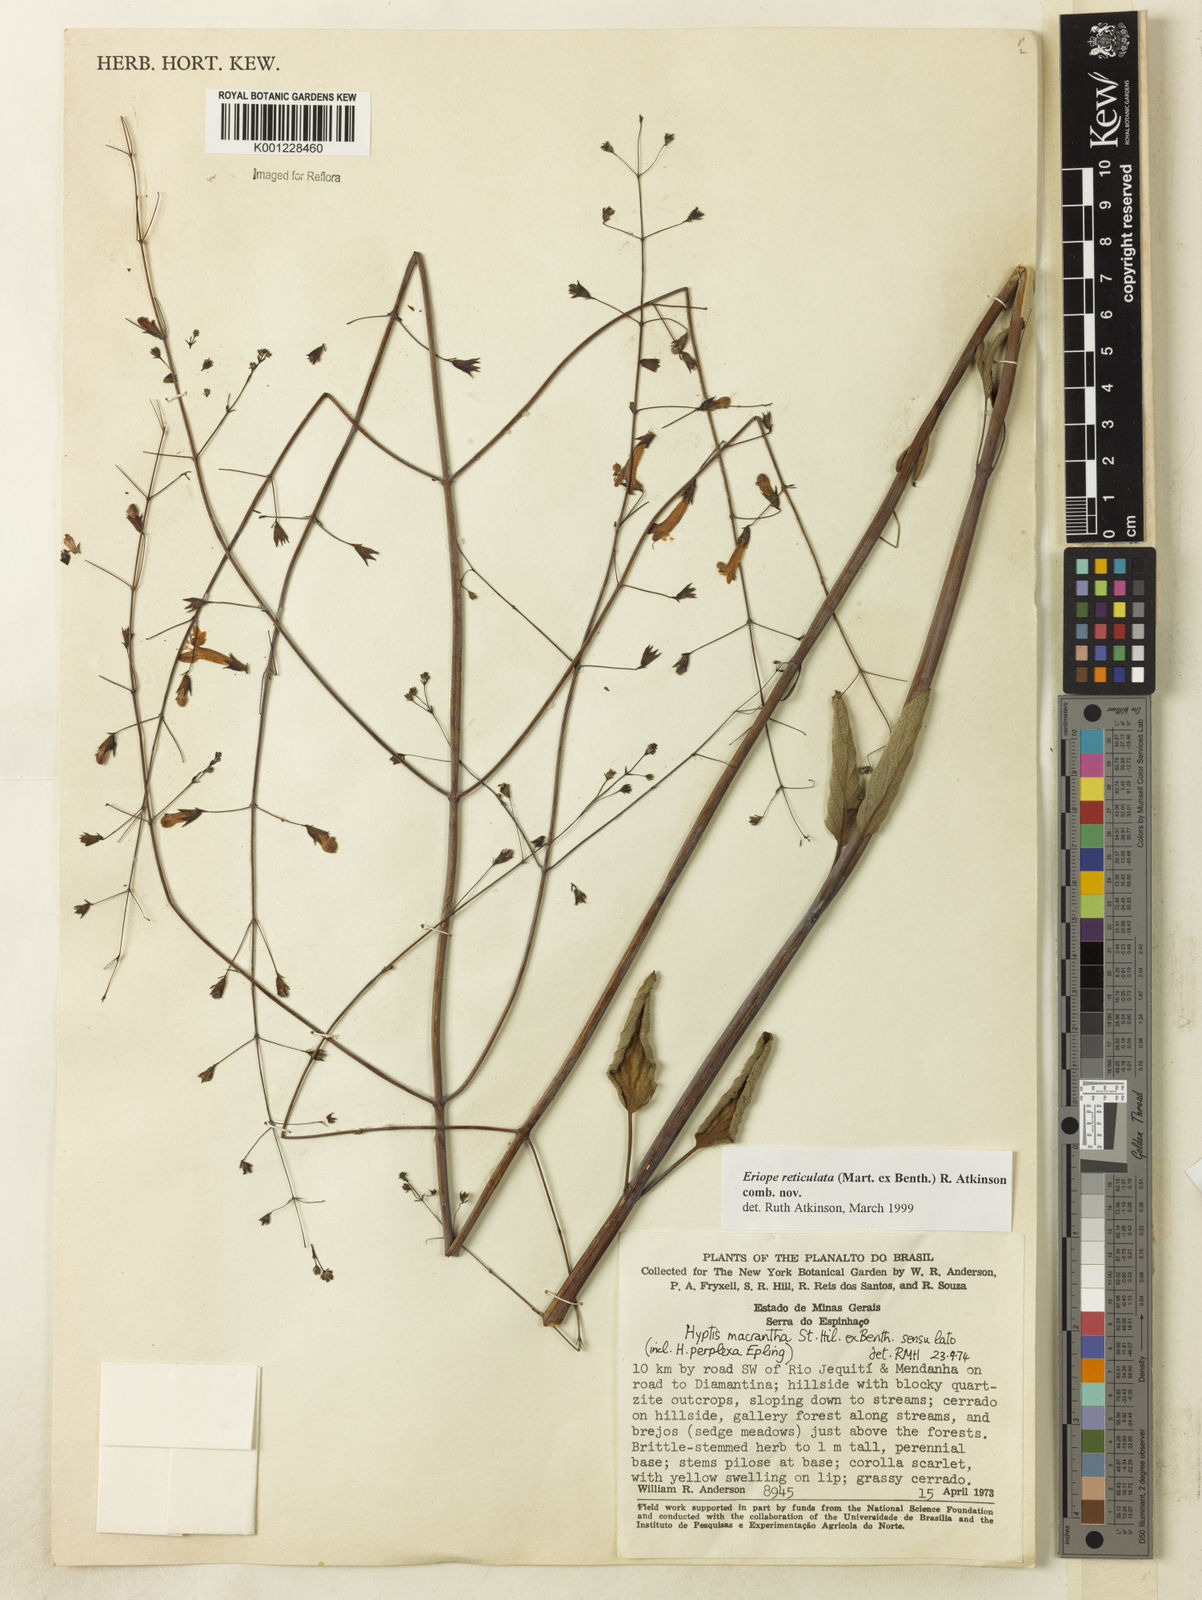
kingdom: Plantae
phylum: Tracheophyta
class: Magnoliopsida
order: Lamiales
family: Lamiaceae
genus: Hypenia
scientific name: Hypenia reticulata
